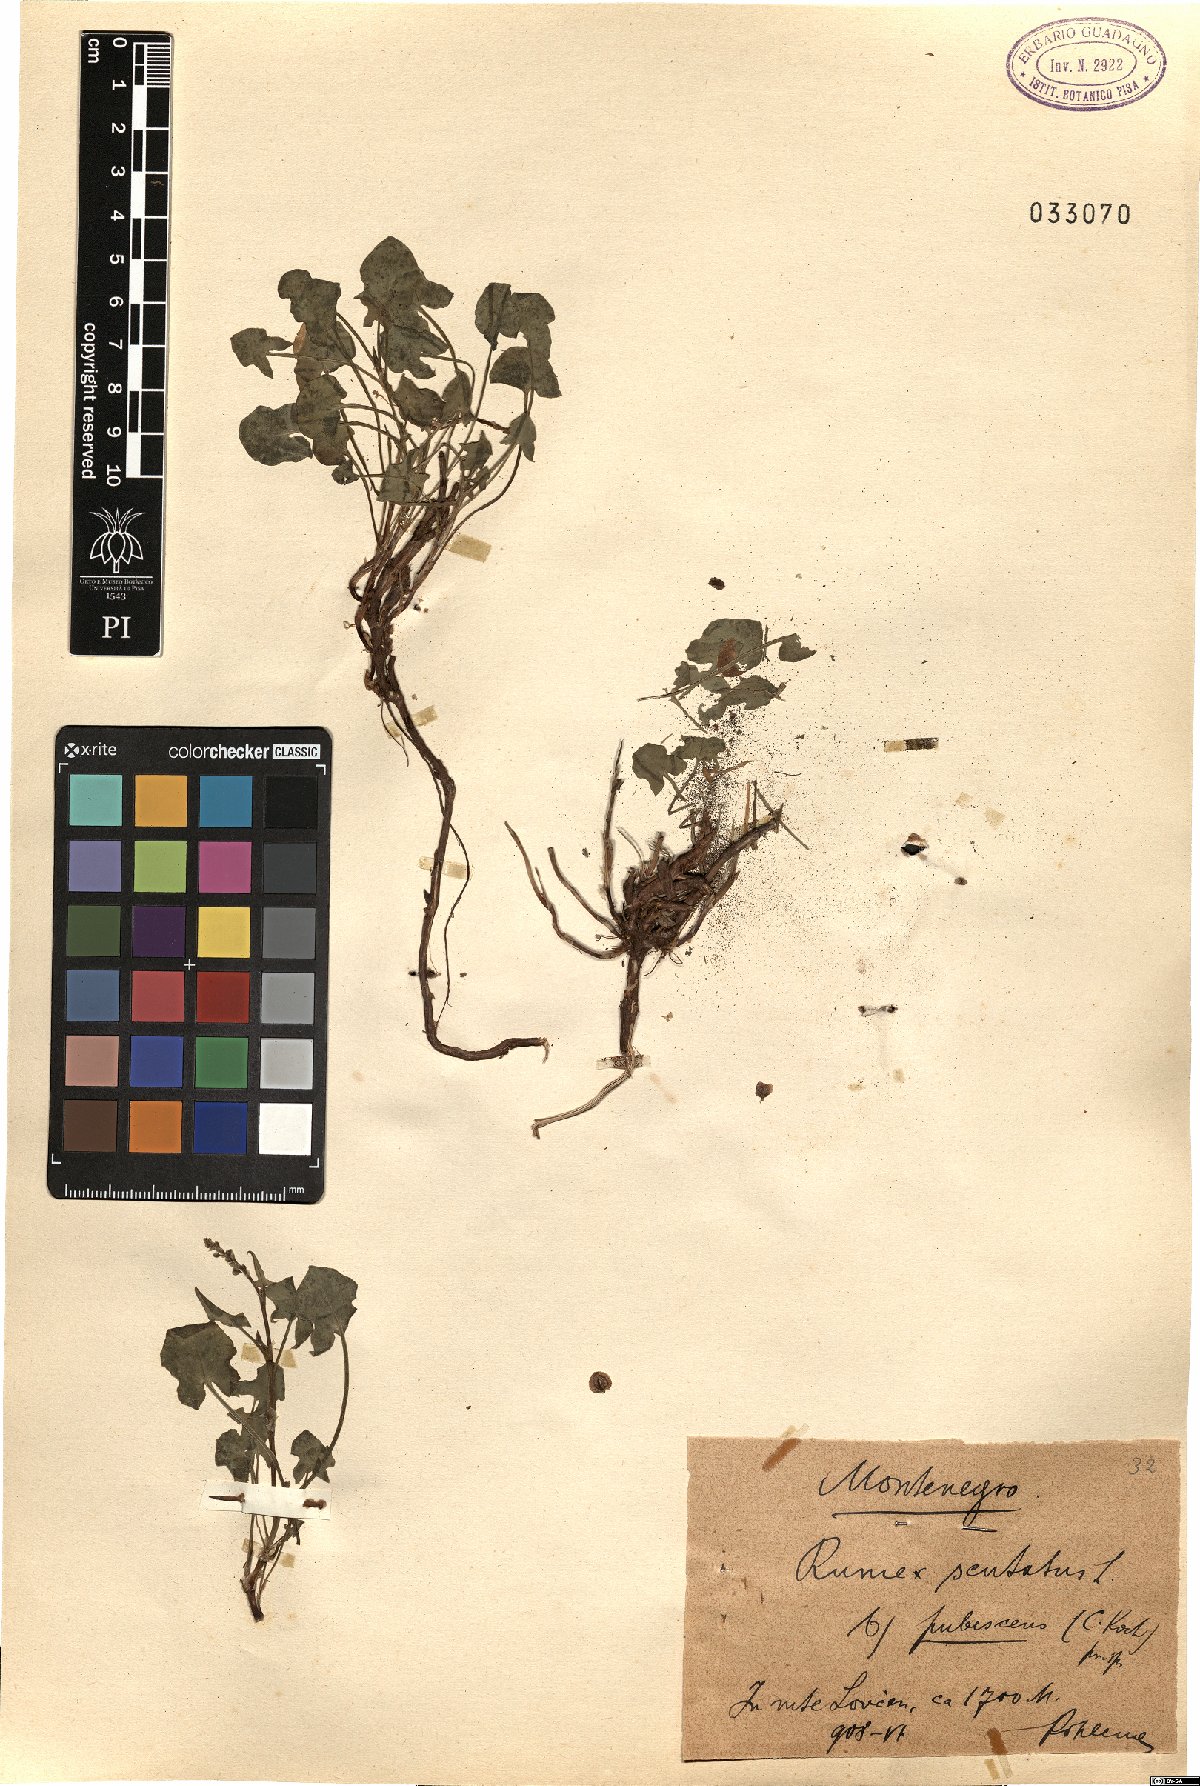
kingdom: Plantae
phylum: Tracheophyta
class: Magnoliopsida
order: Caryophyllales
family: Polygonaceae
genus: Rumex
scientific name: Rumex scutatus
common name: French sorrel
